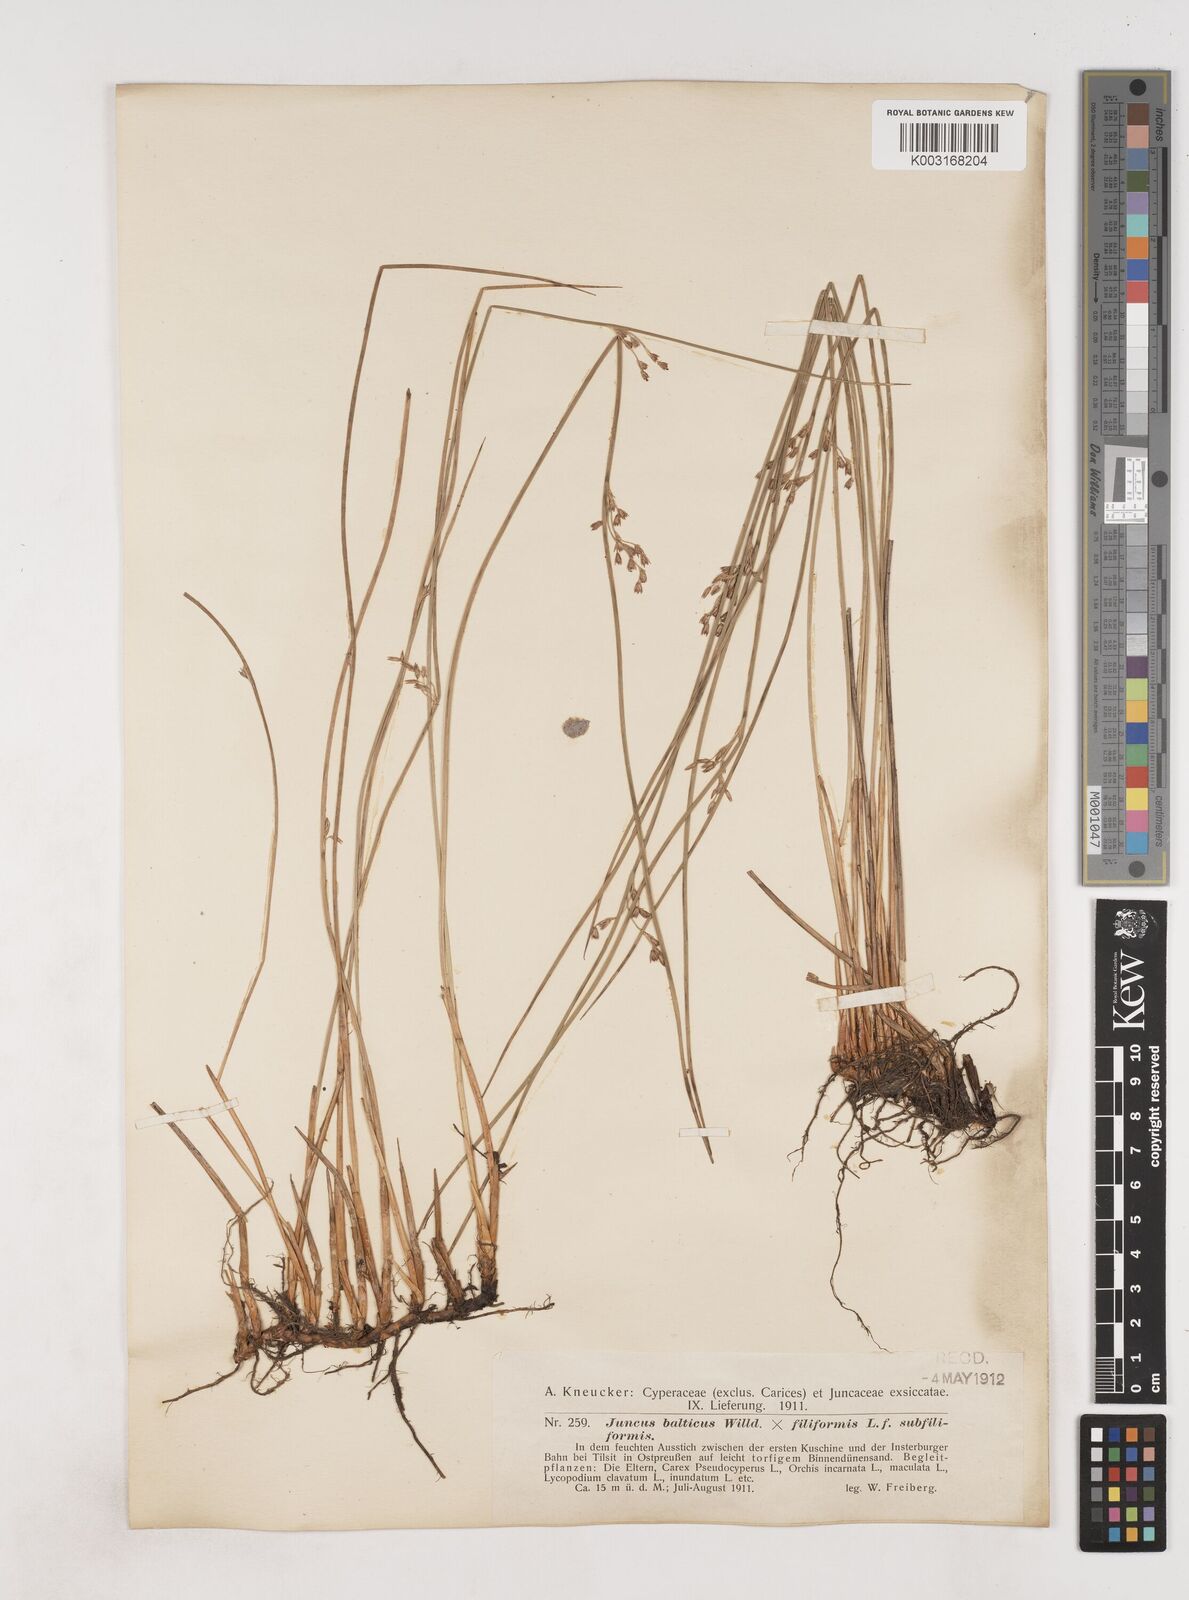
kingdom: Plantae
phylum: Tracheophyta
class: Liliopsida
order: Poales
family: Juncaceae
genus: Juncus
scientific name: Juncus balticus
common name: Baltic rush
